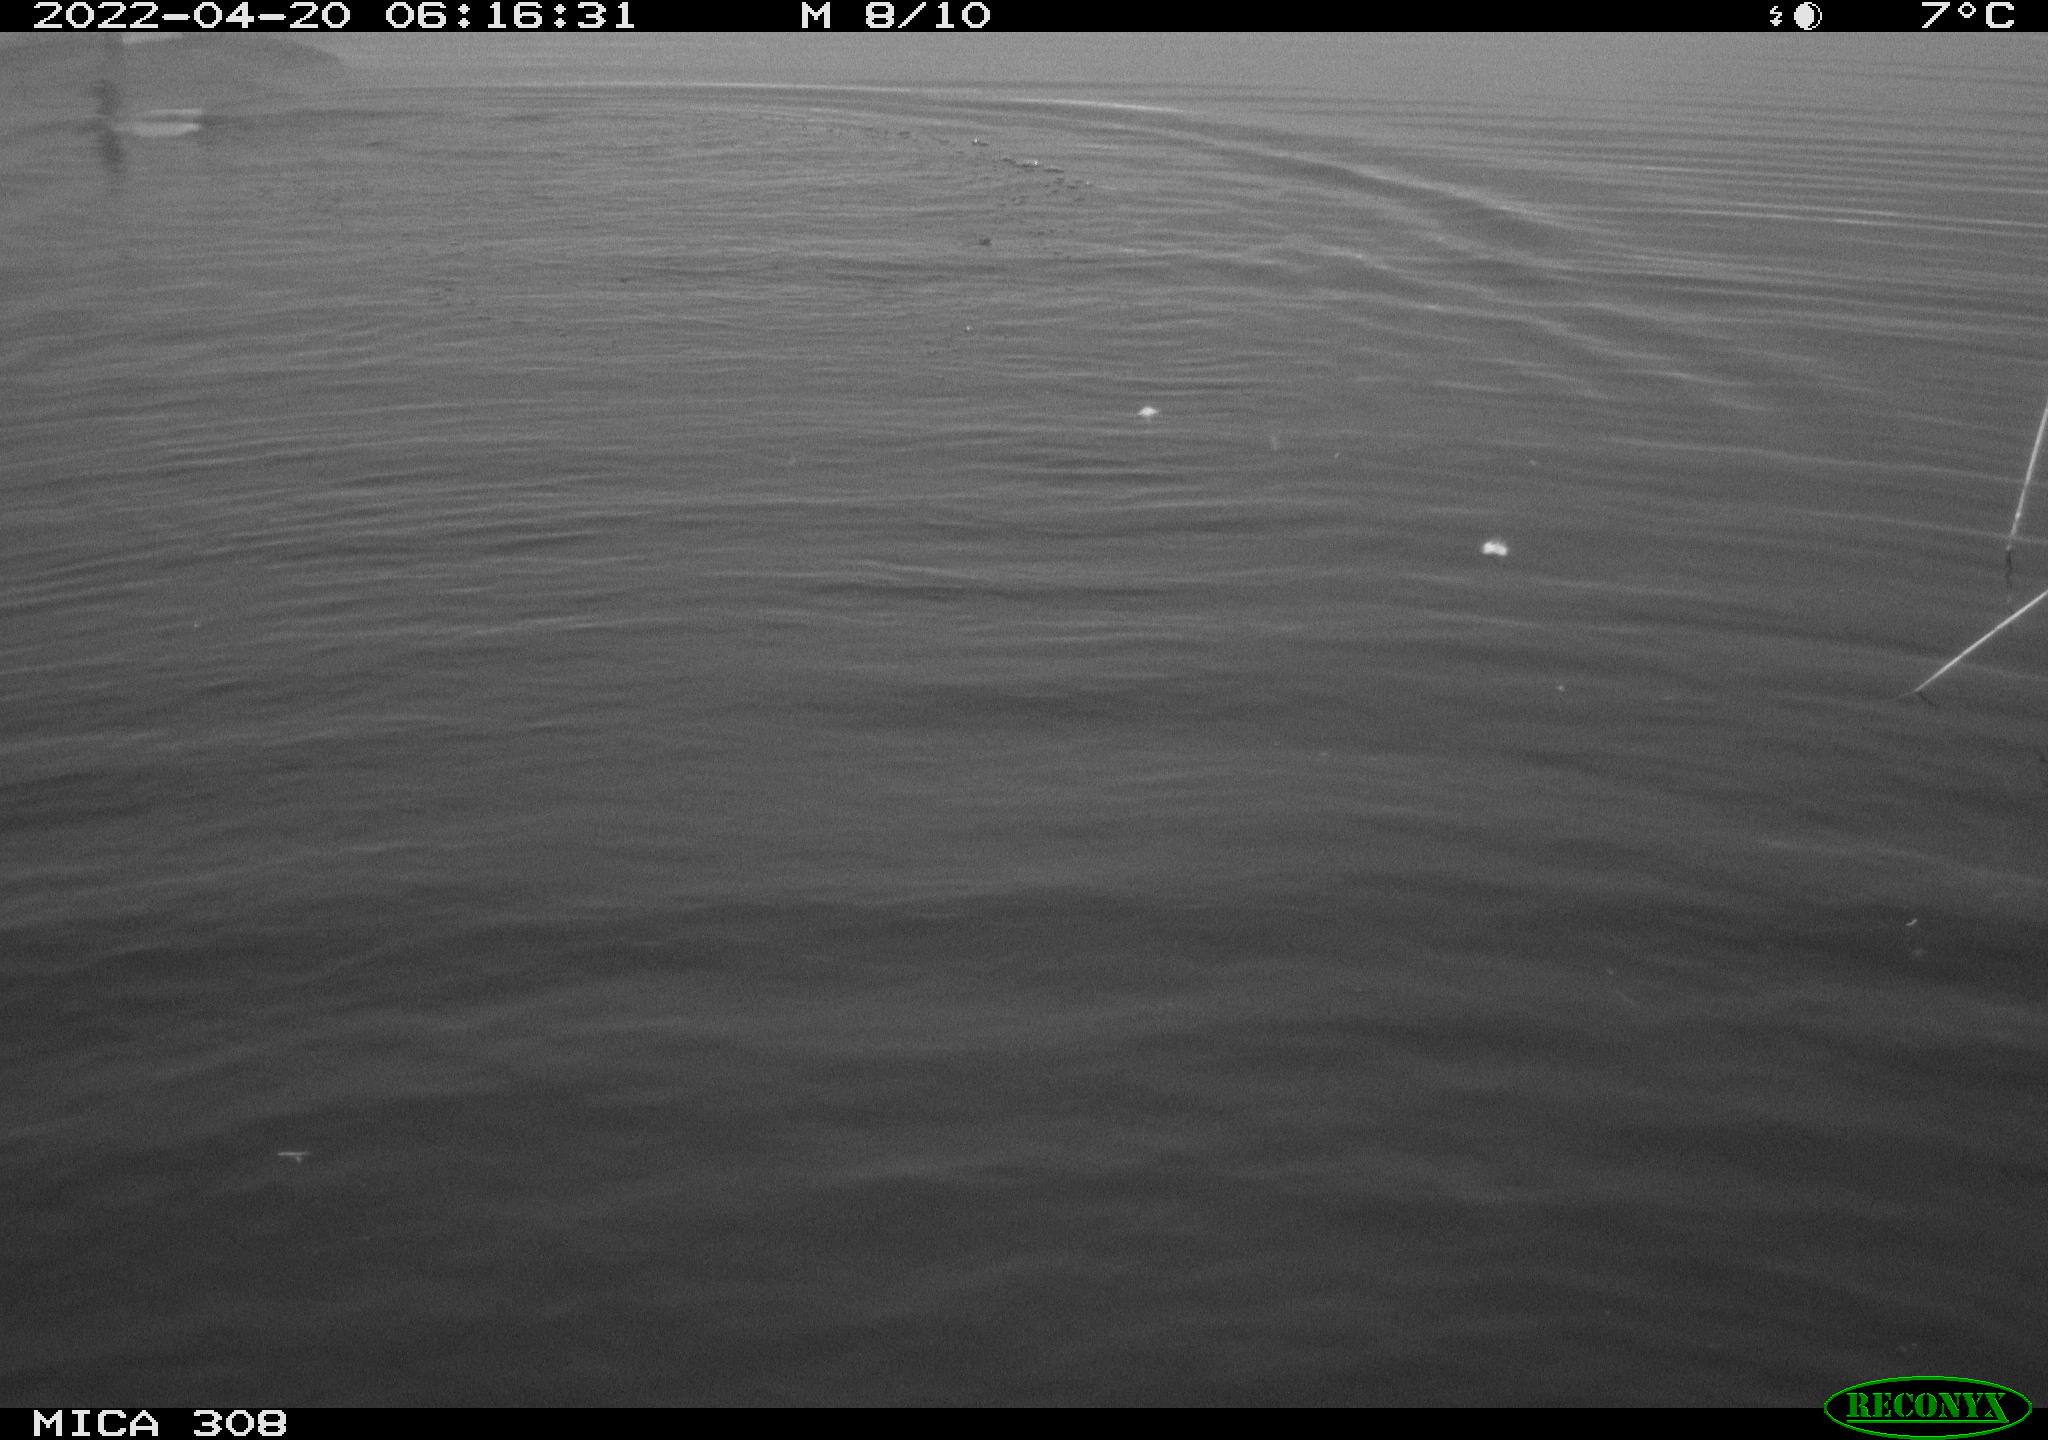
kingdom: Animalia
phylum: Chordata
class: Aves
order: Anseriformes
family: Anatidae
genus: Anas
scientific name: Anas platyrhynchos
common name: Mallard
